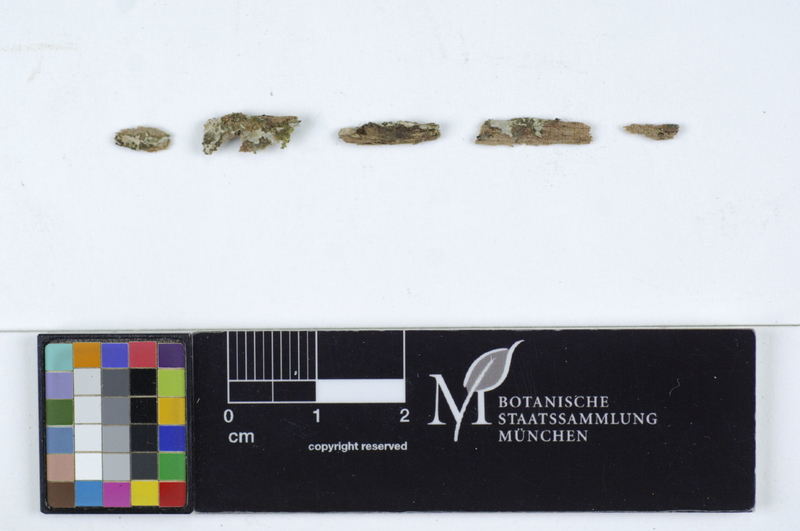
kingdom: Fungi
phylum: Basidiomycota
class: Agaricomycetes
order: Atheliales
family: Atheliaceae
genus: Byssocorticium
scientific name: Byssocorticium pulchrum
